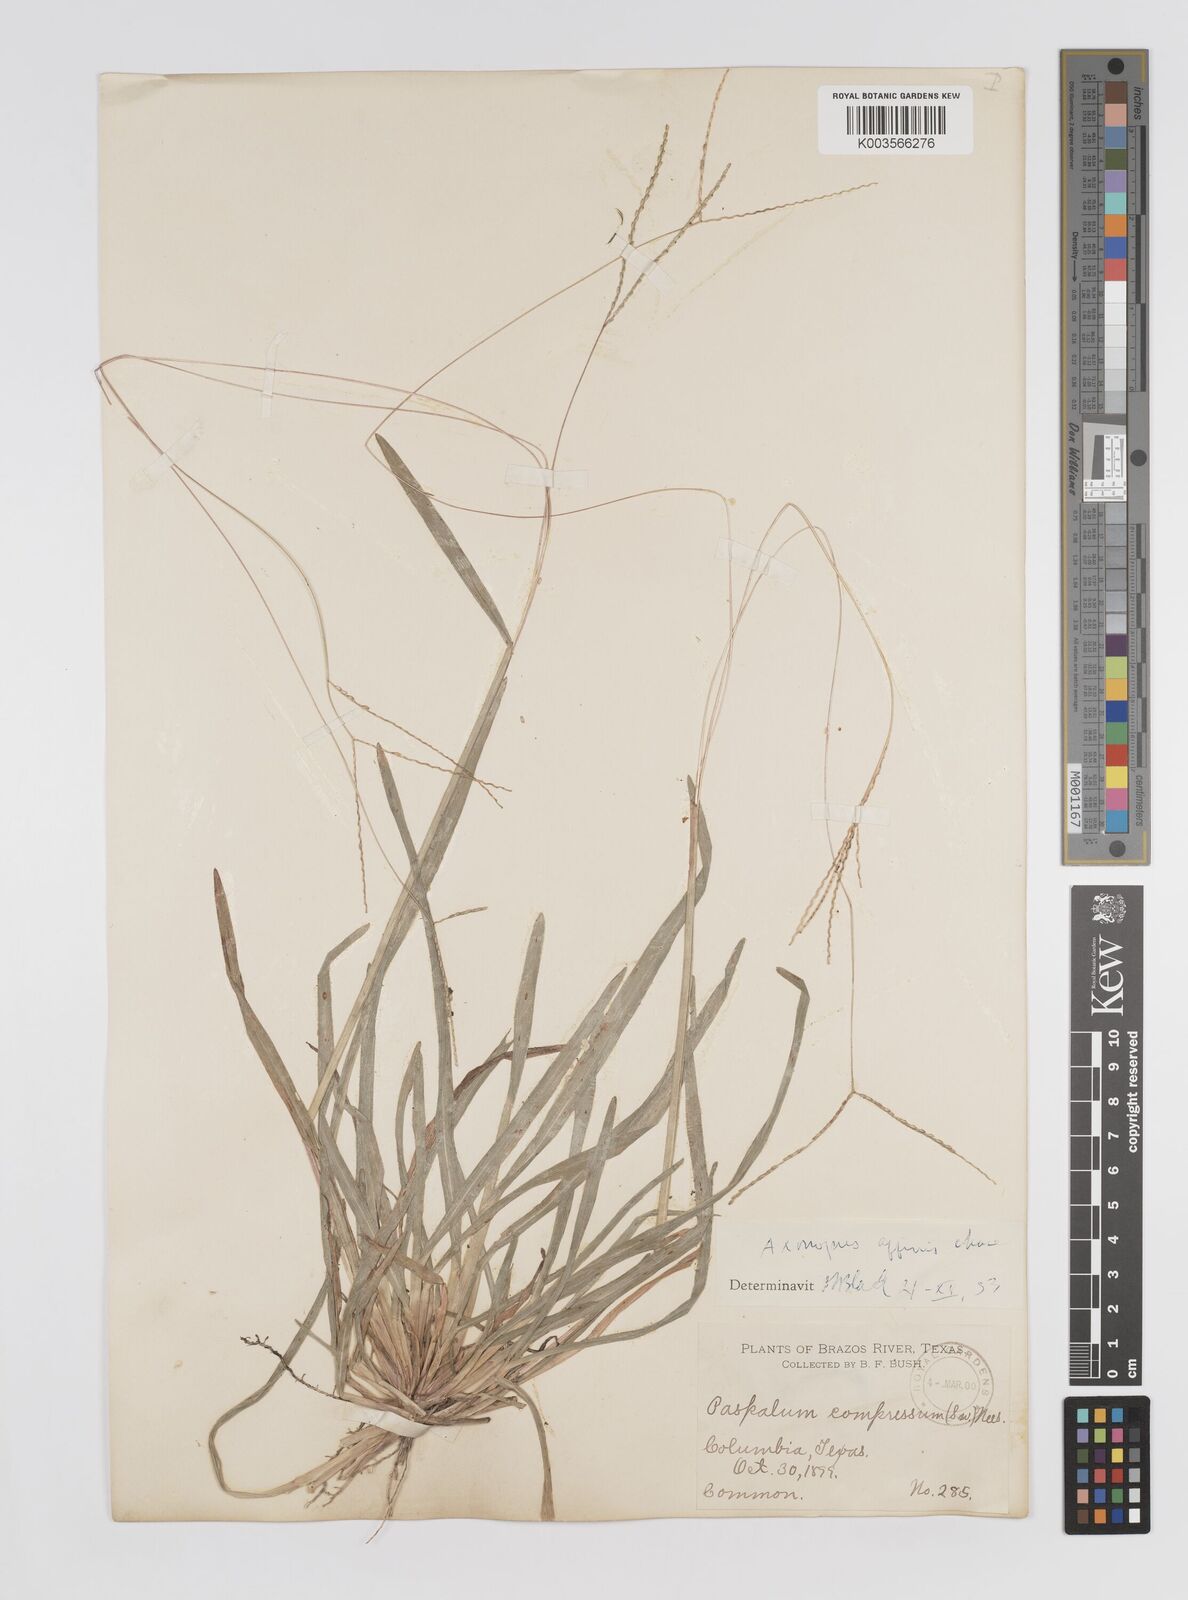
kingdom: Plantae
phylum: Tracheophyta
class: Liliopsida
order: Poales
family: Poaceae
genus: Axonopus
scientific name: Axonopus fissifolius
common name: Common carpetgrass
